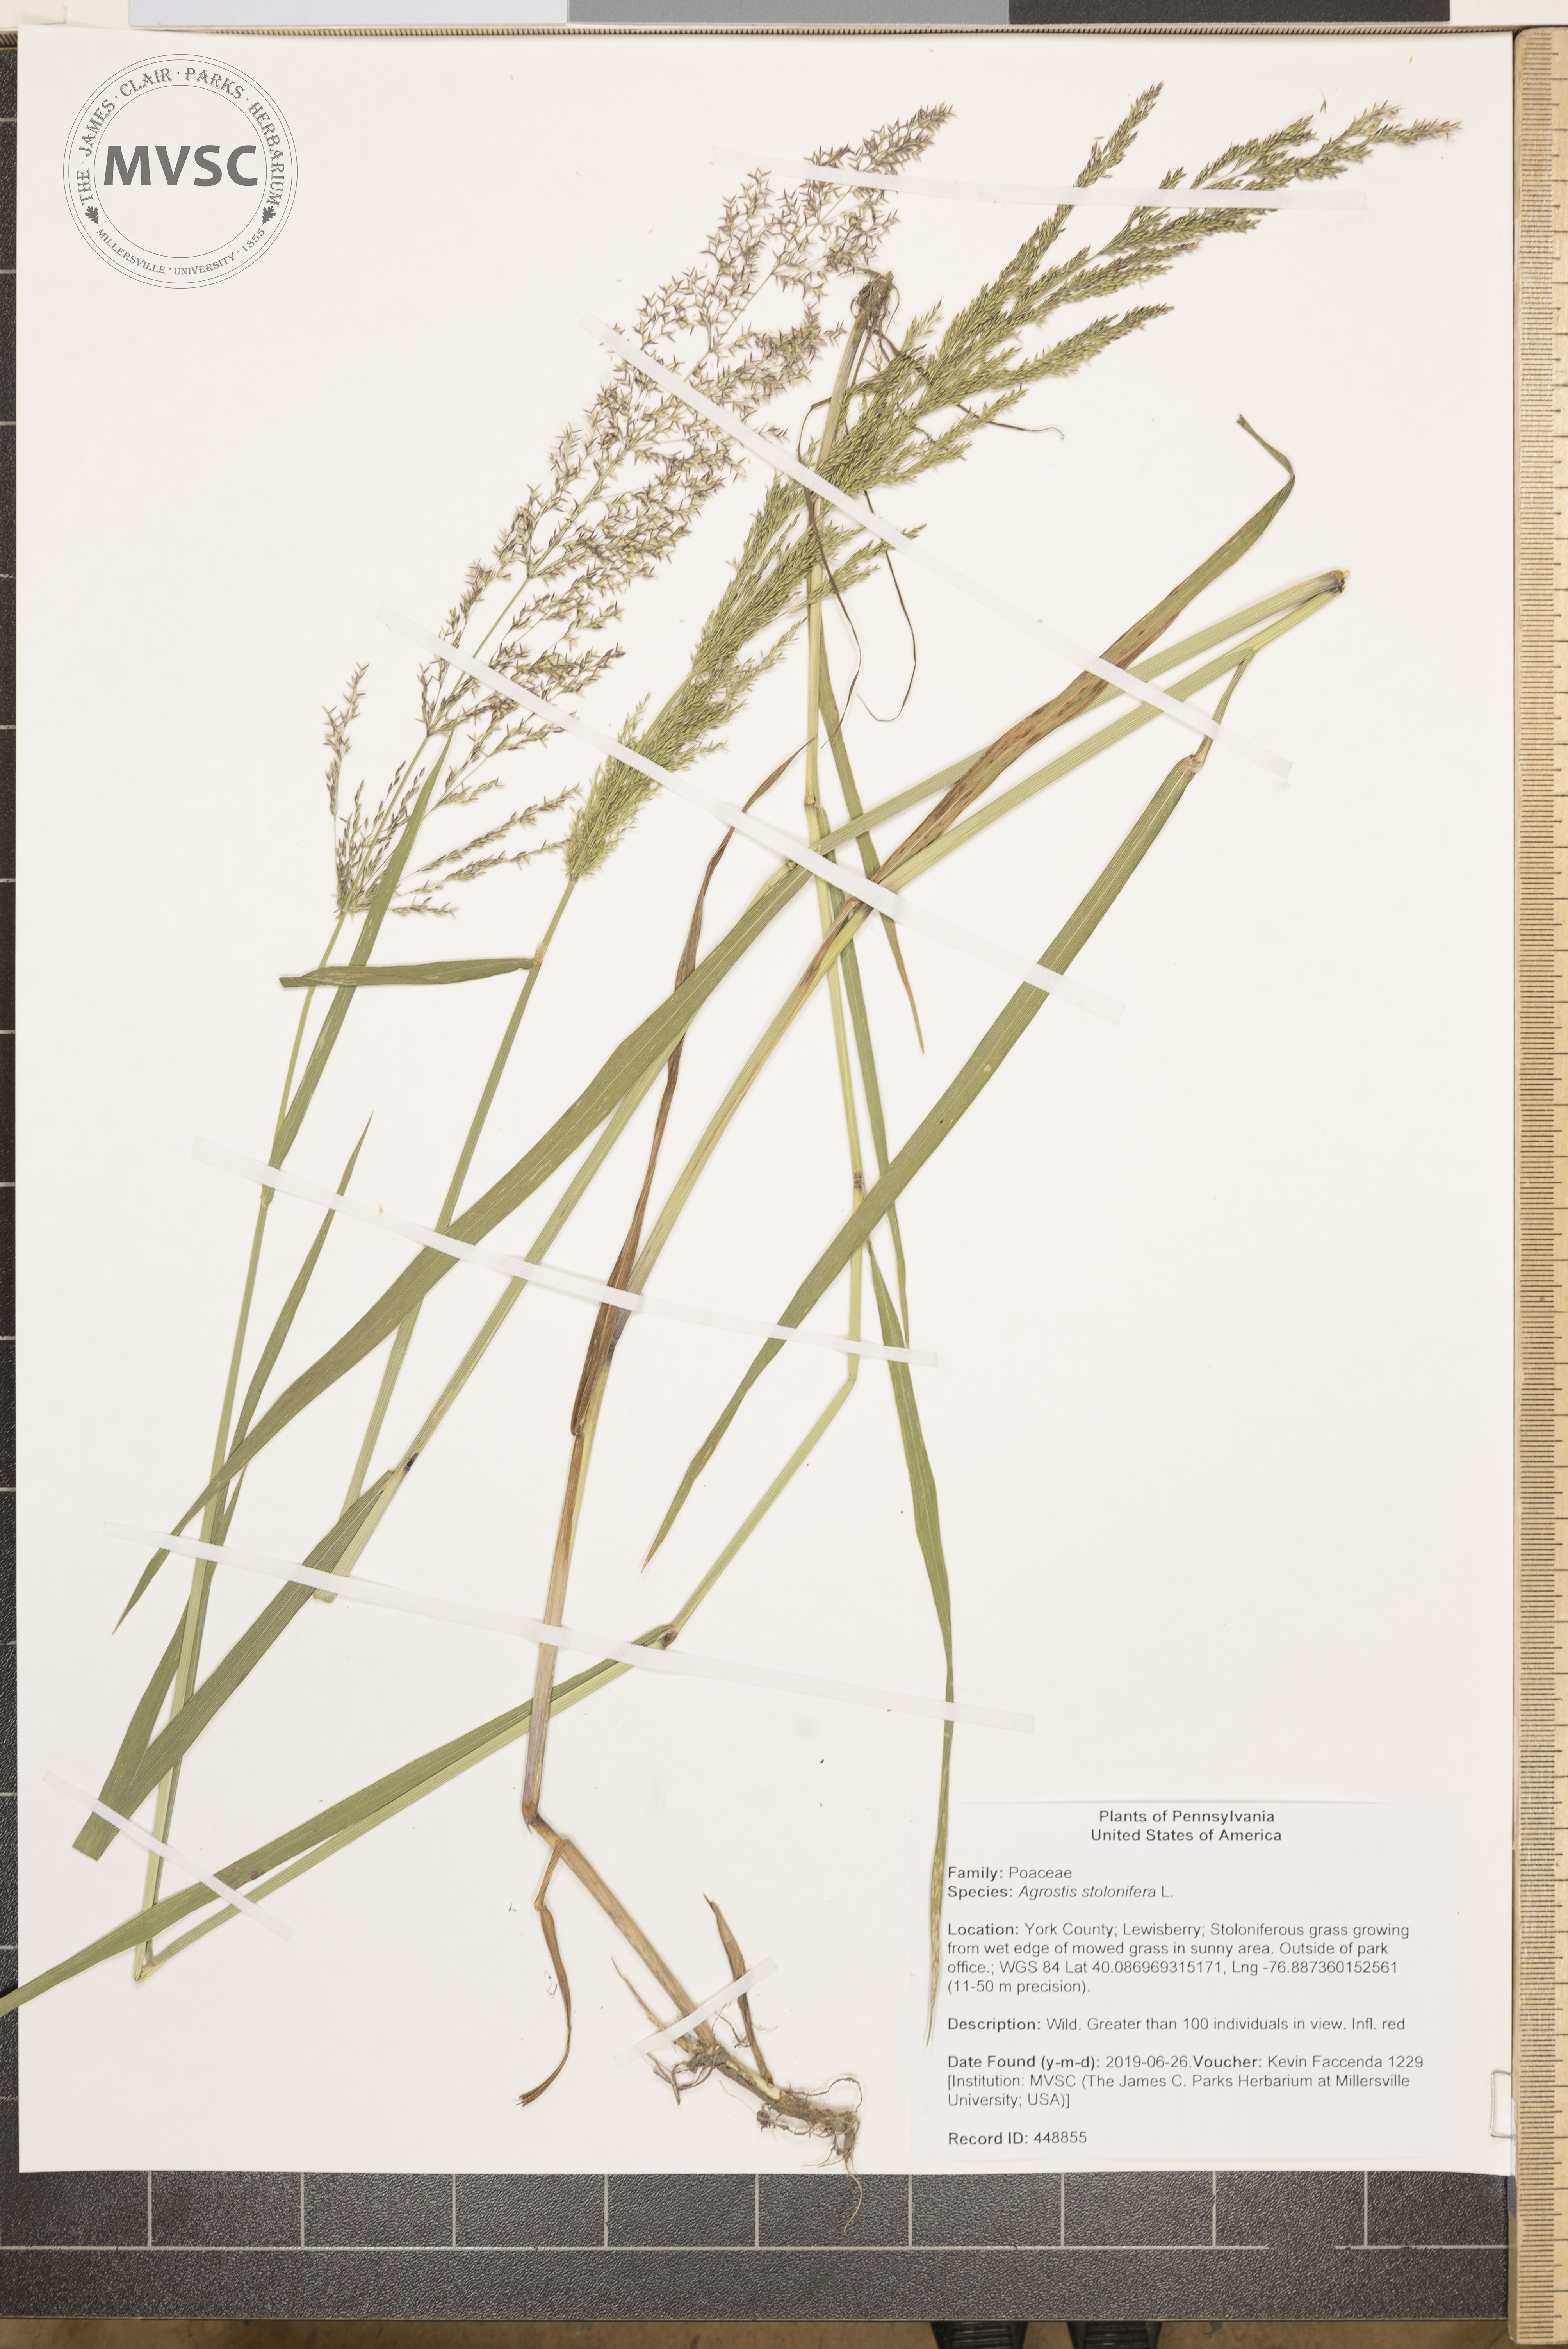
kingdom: Plantae
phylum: Tracheophyta
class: Liliopsida
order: Poales
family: Poaceae
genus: Agrostis
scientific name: Agrostis stolonifera
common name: Creeping bentgrass
